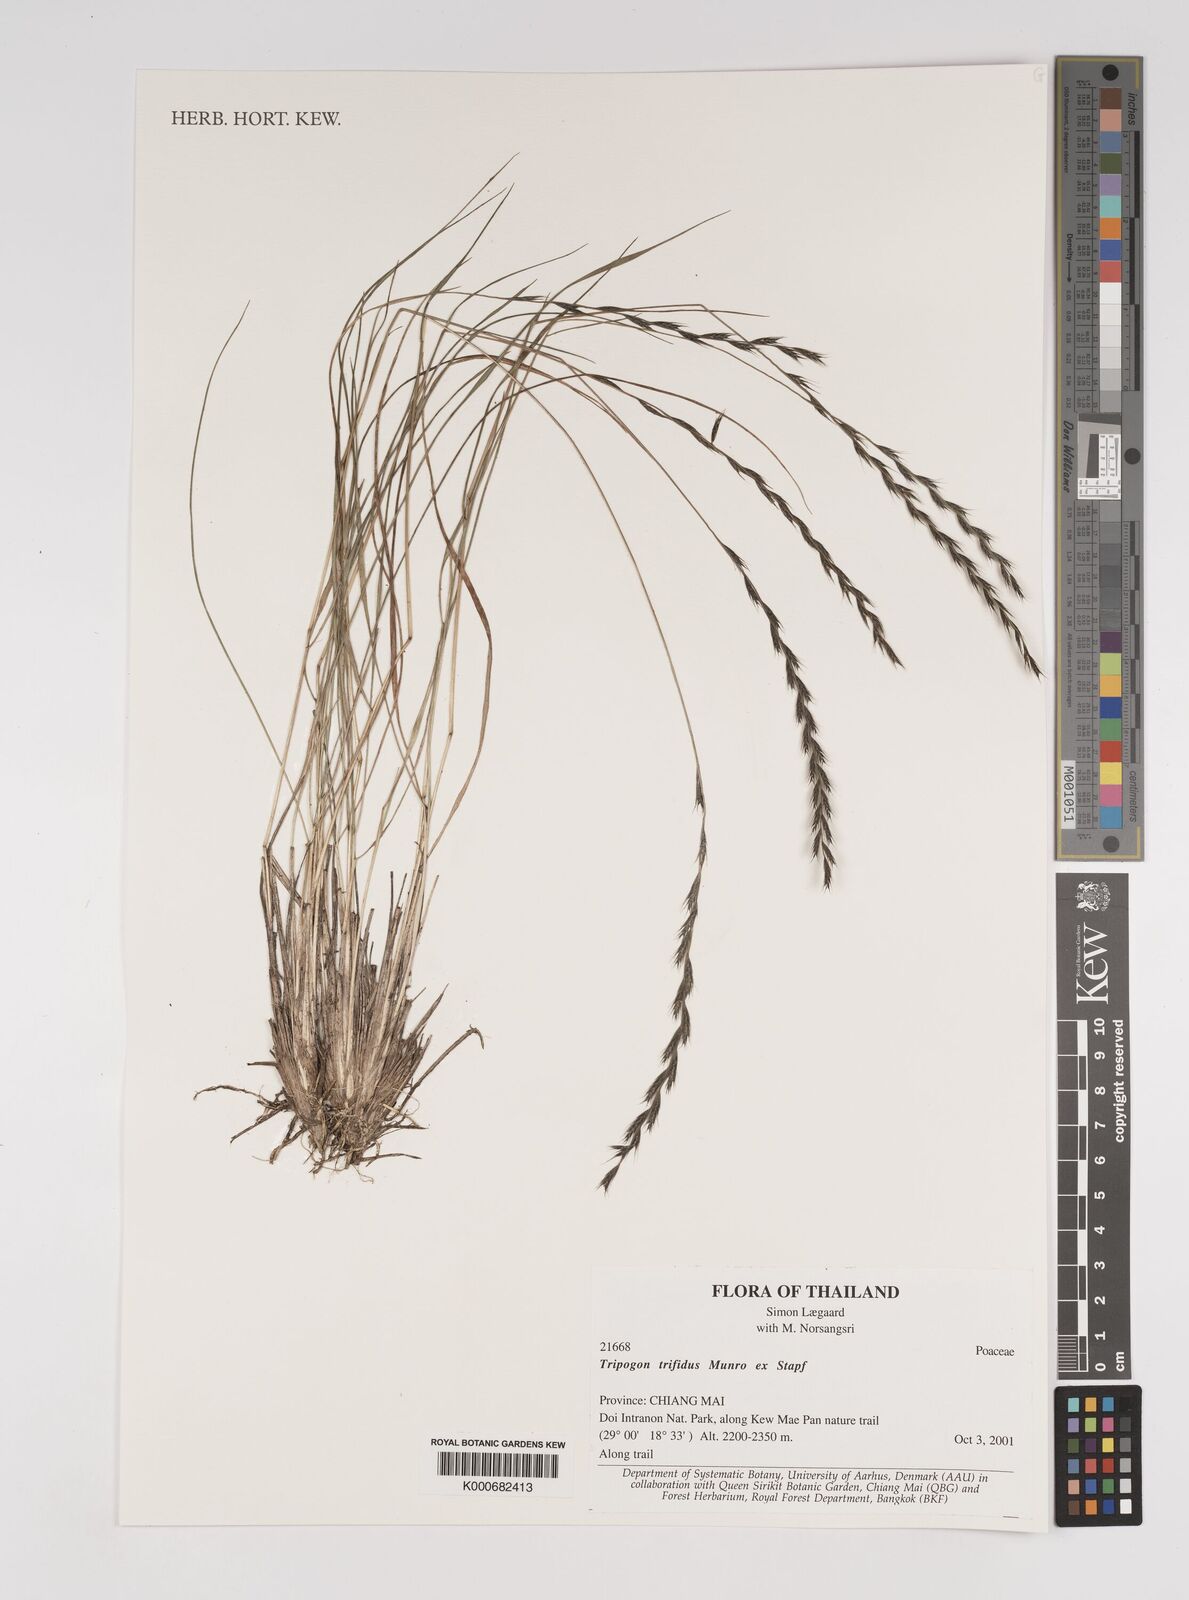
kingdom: Plantae
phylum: Tracheophyta
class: Liliopsida
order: Poales
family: Poaceae
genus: Tripogon
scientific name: Tripogon trifidus
